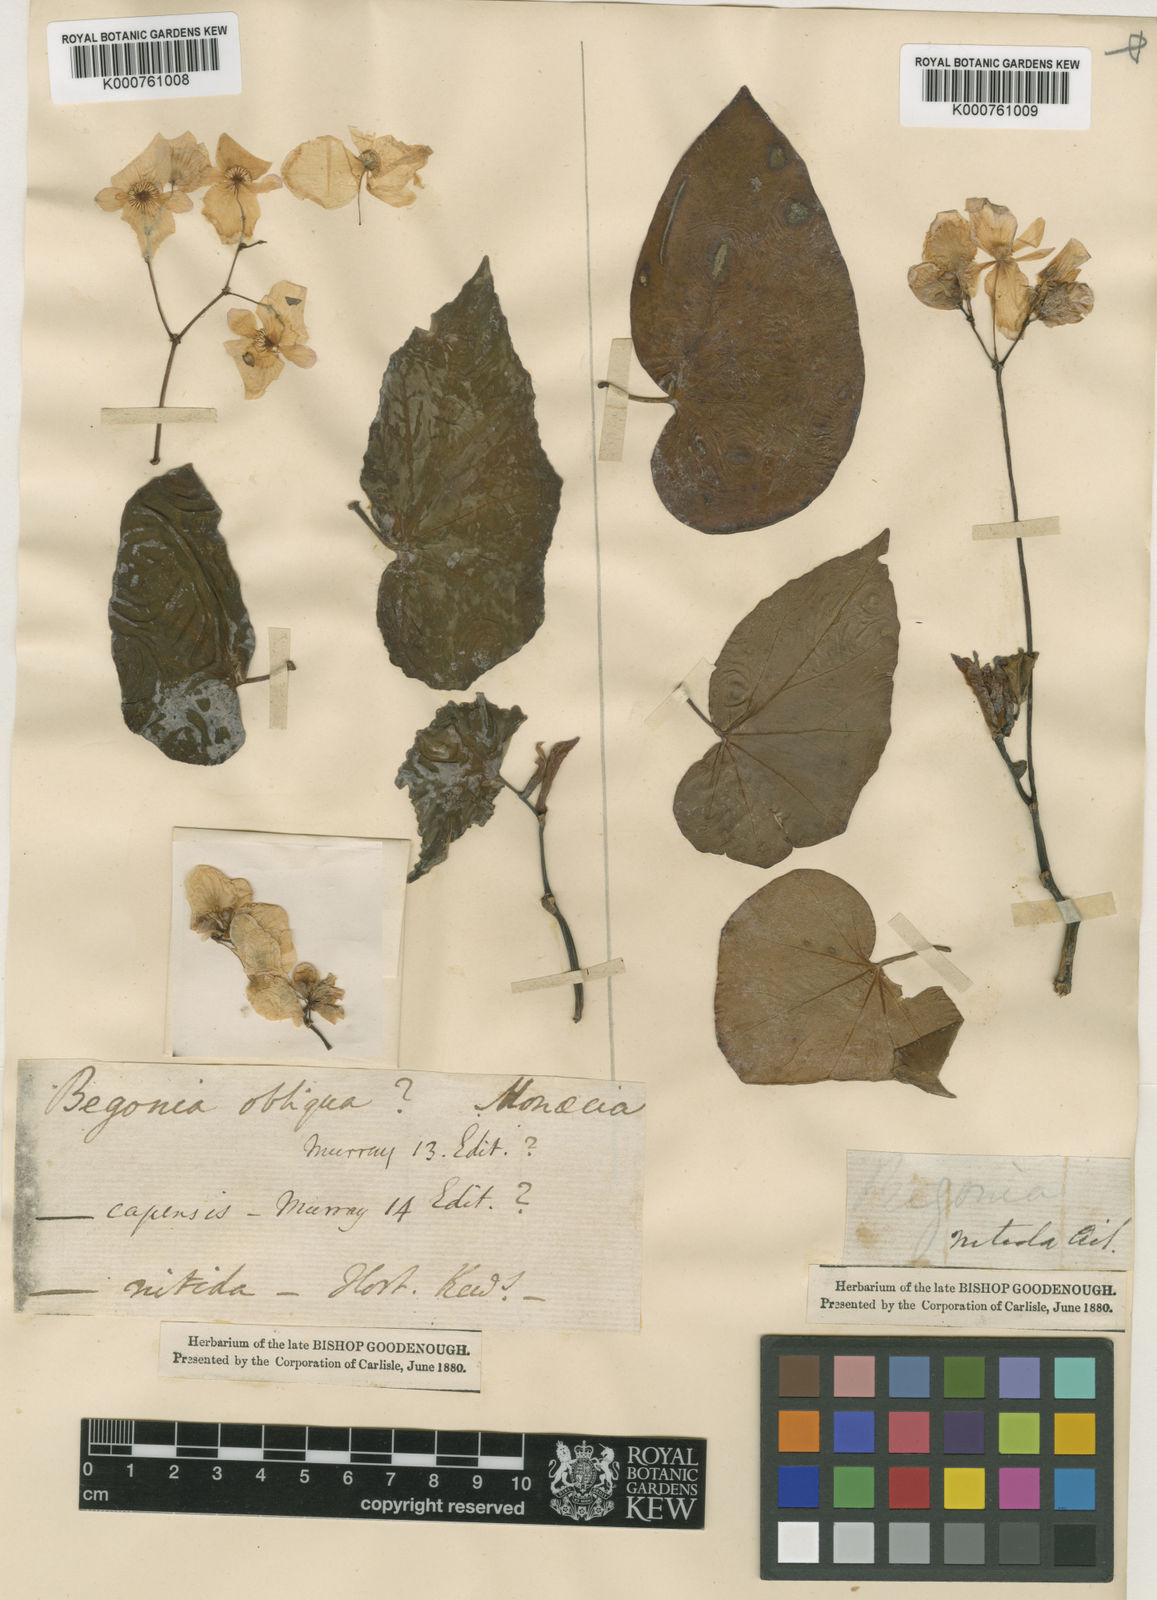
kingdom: Plantae
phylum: Tracheophyta
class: Magnoliopsida
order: Cucurbitales
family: Begoniaceae
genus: Begonia
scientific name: Begonia
